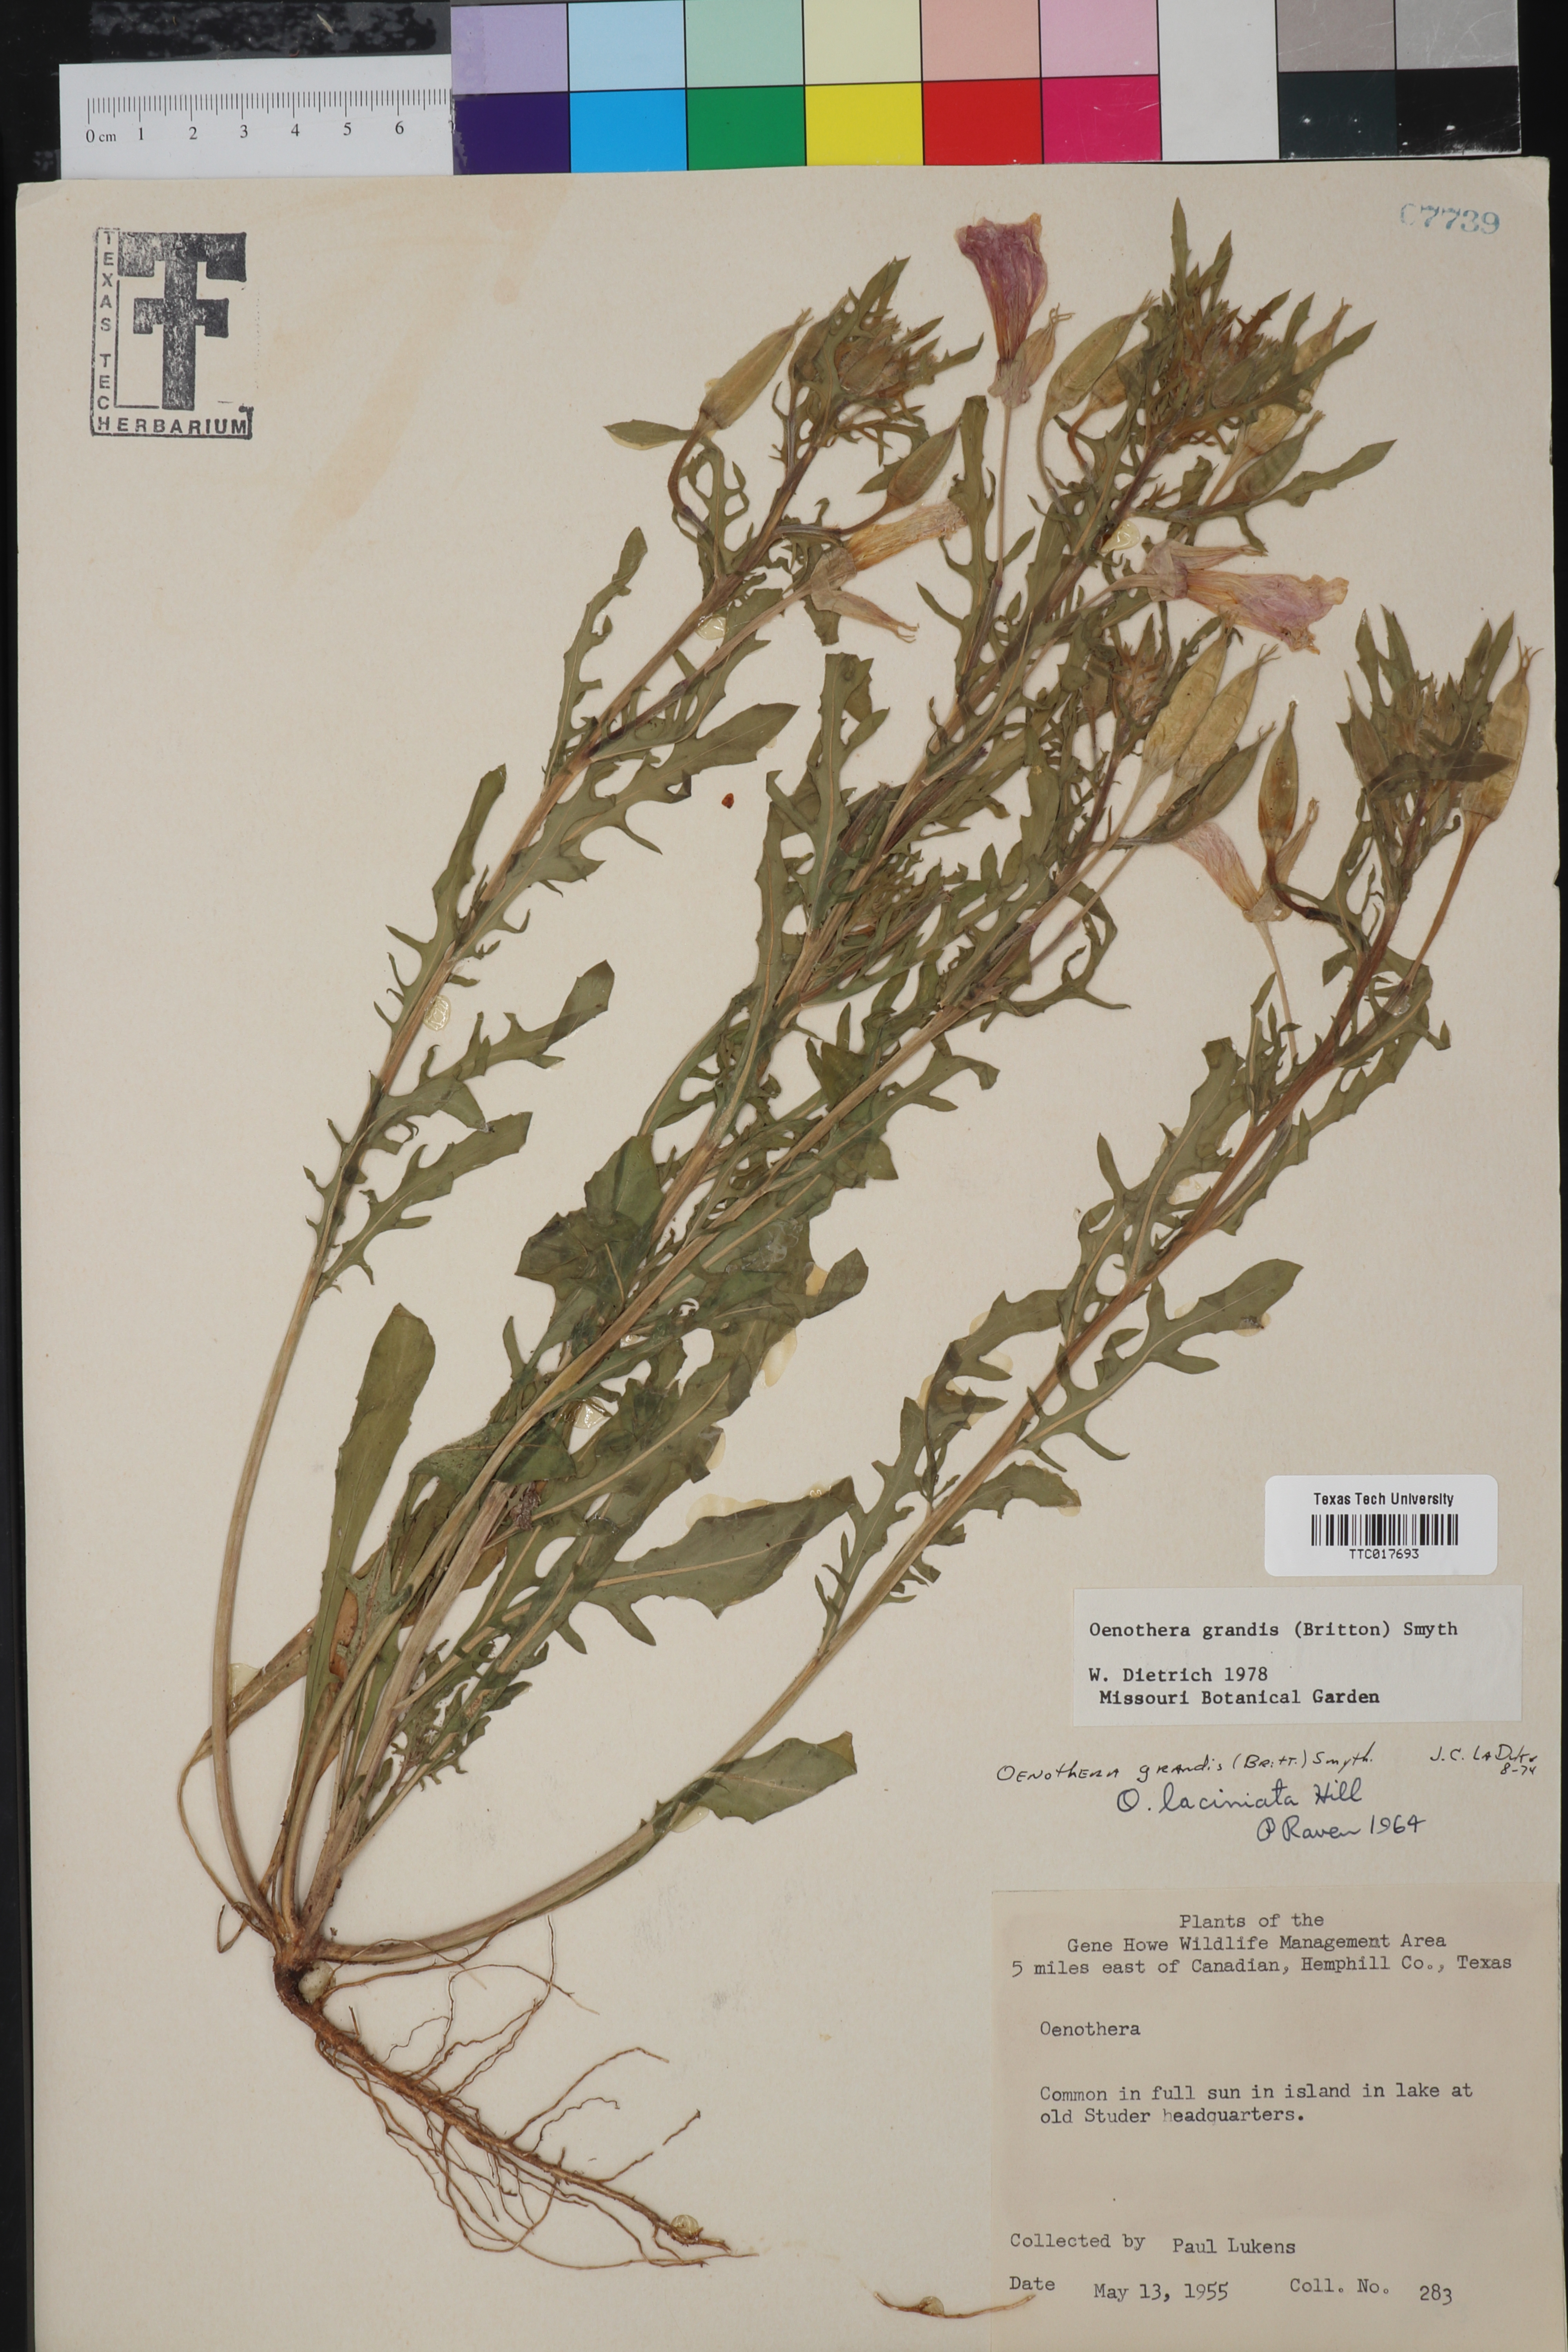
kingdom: Plantae
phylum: Tracheophyta
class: Magnoliopsida
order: Myrtales
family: Onagraceae
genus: Oenothera
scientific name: Oenothera grandis
